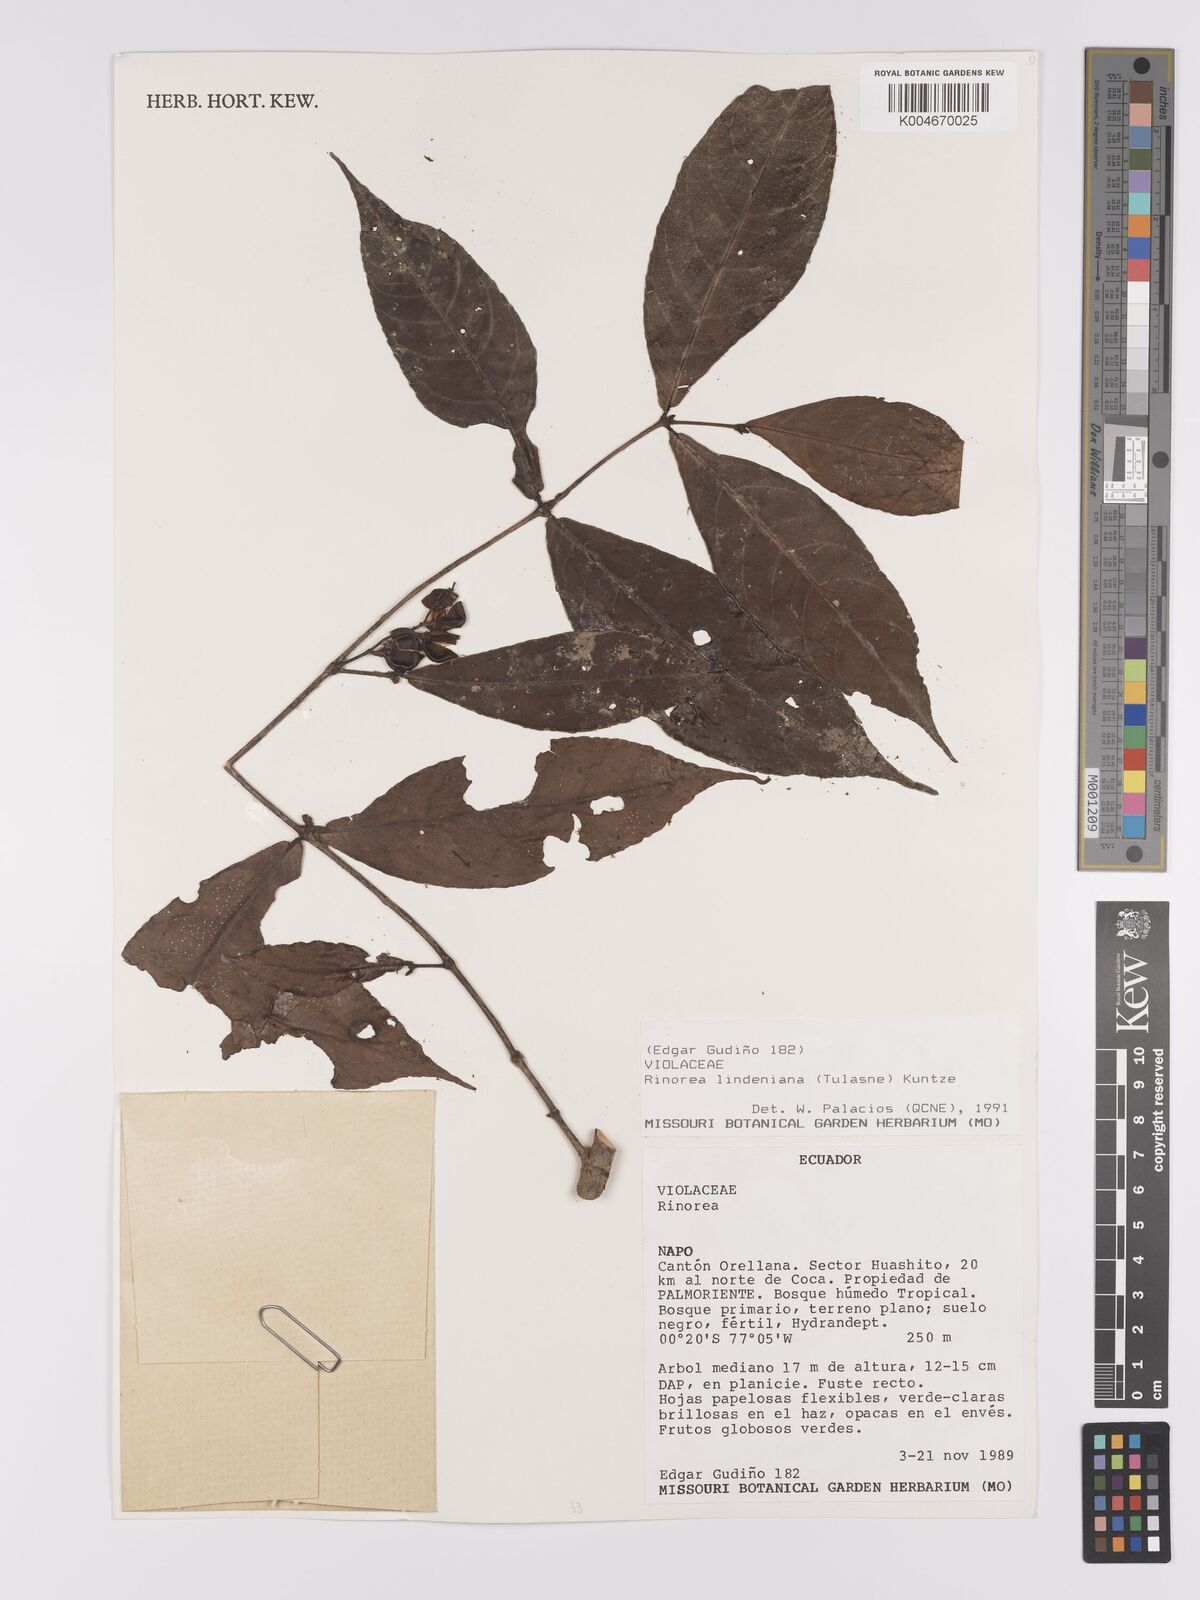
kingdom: Plantae
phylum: Tracheophyta
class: Magnoliopsida
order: Malpighiales
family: Violaceae
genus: Rinorea
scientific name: Rinorea lindeniana
